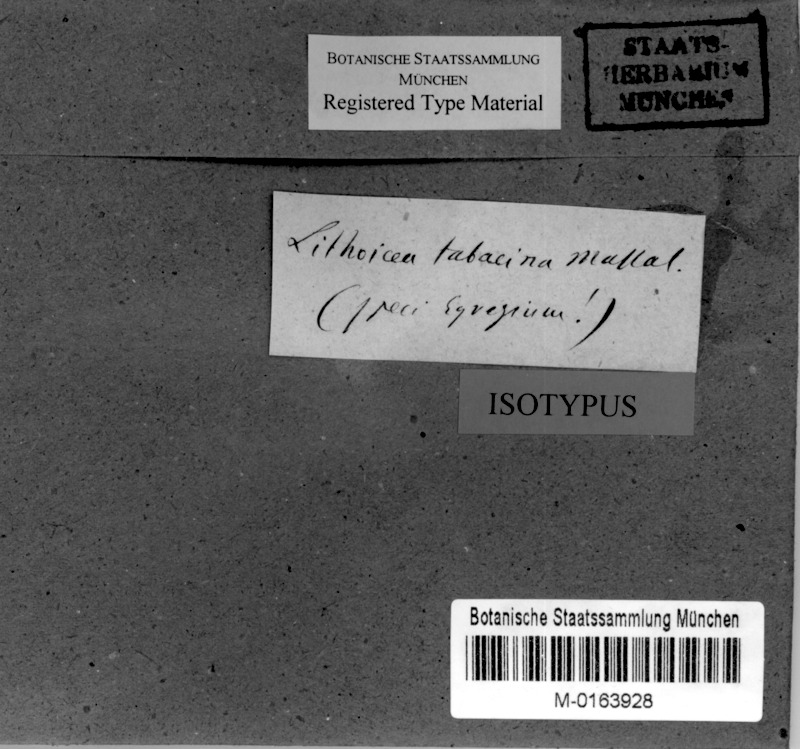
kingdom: Fungi
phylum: Ascomycota
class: Eurotiomycetes
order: Verrucariales
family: Verrucariaceae
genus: Verrucaria
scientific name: Verrucaria tabacina
